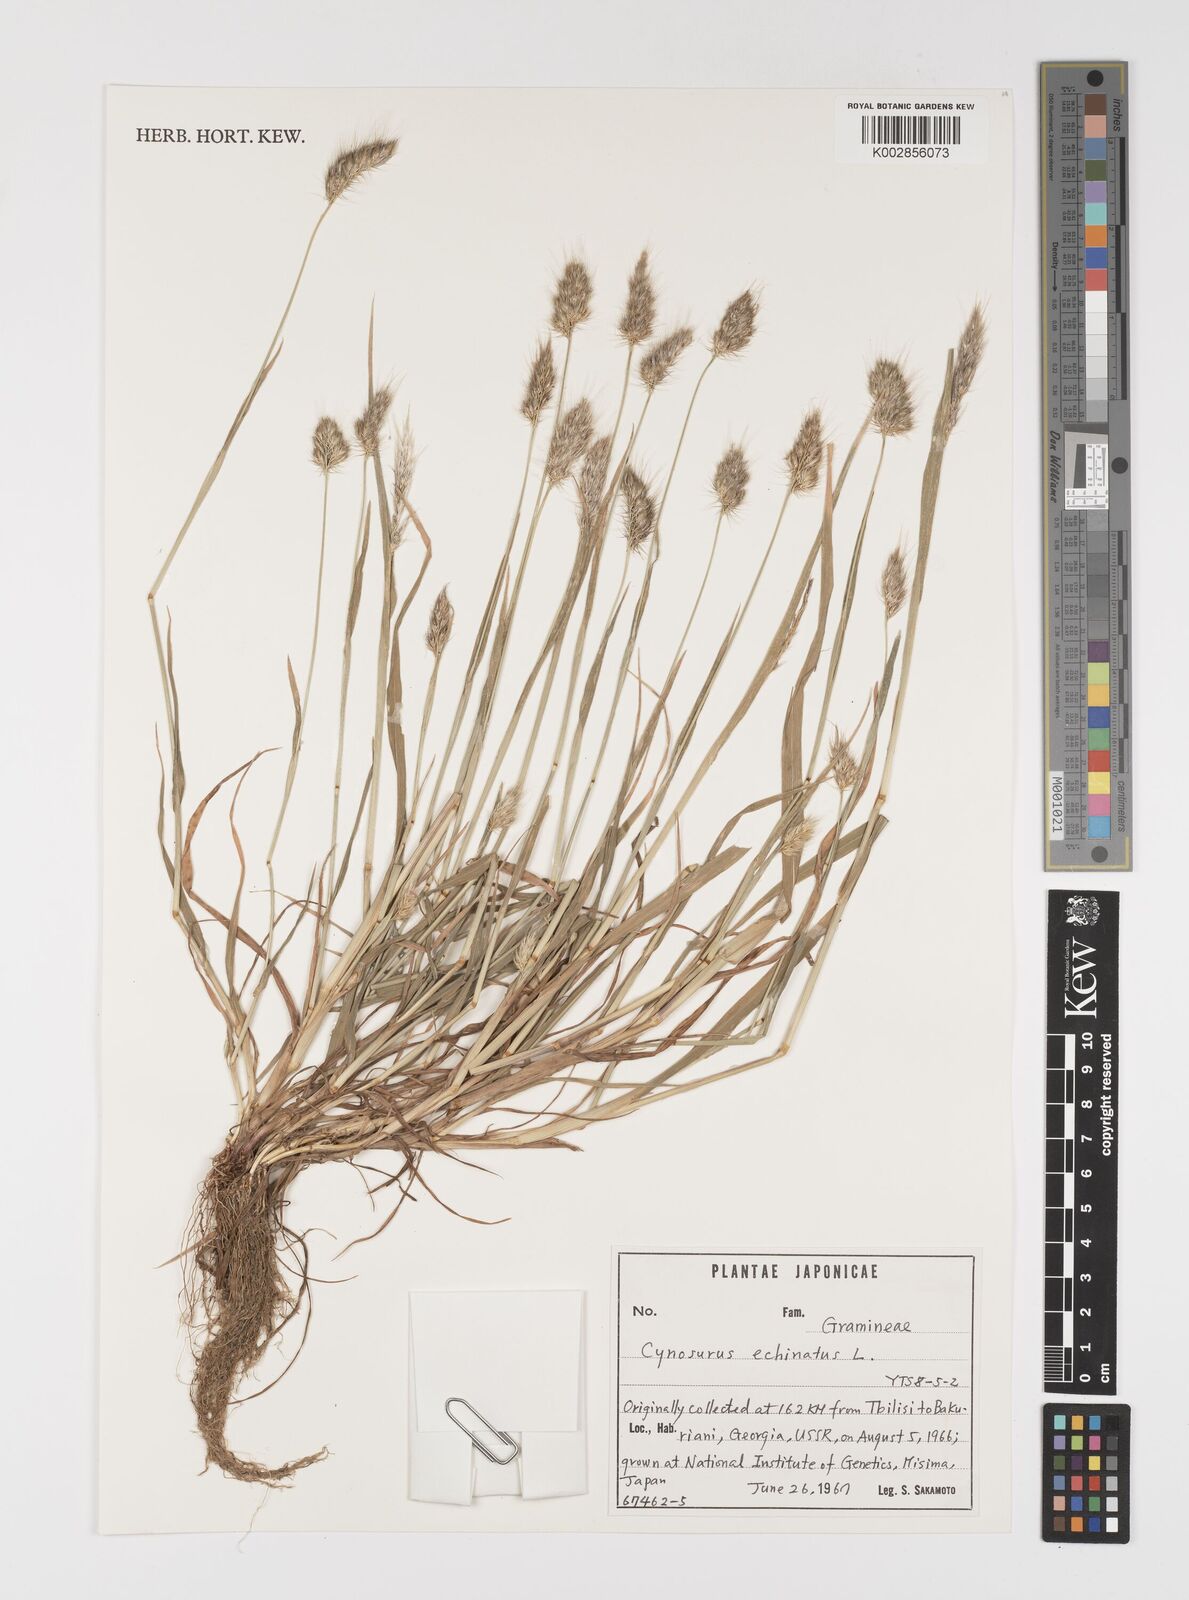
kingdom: Plantae
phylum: Tracheophyta
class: Liliopsida
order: Poales
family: Poaceae
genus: Cynosurus
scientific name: Cynosurus echinatus
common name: Rough dog's-tail
